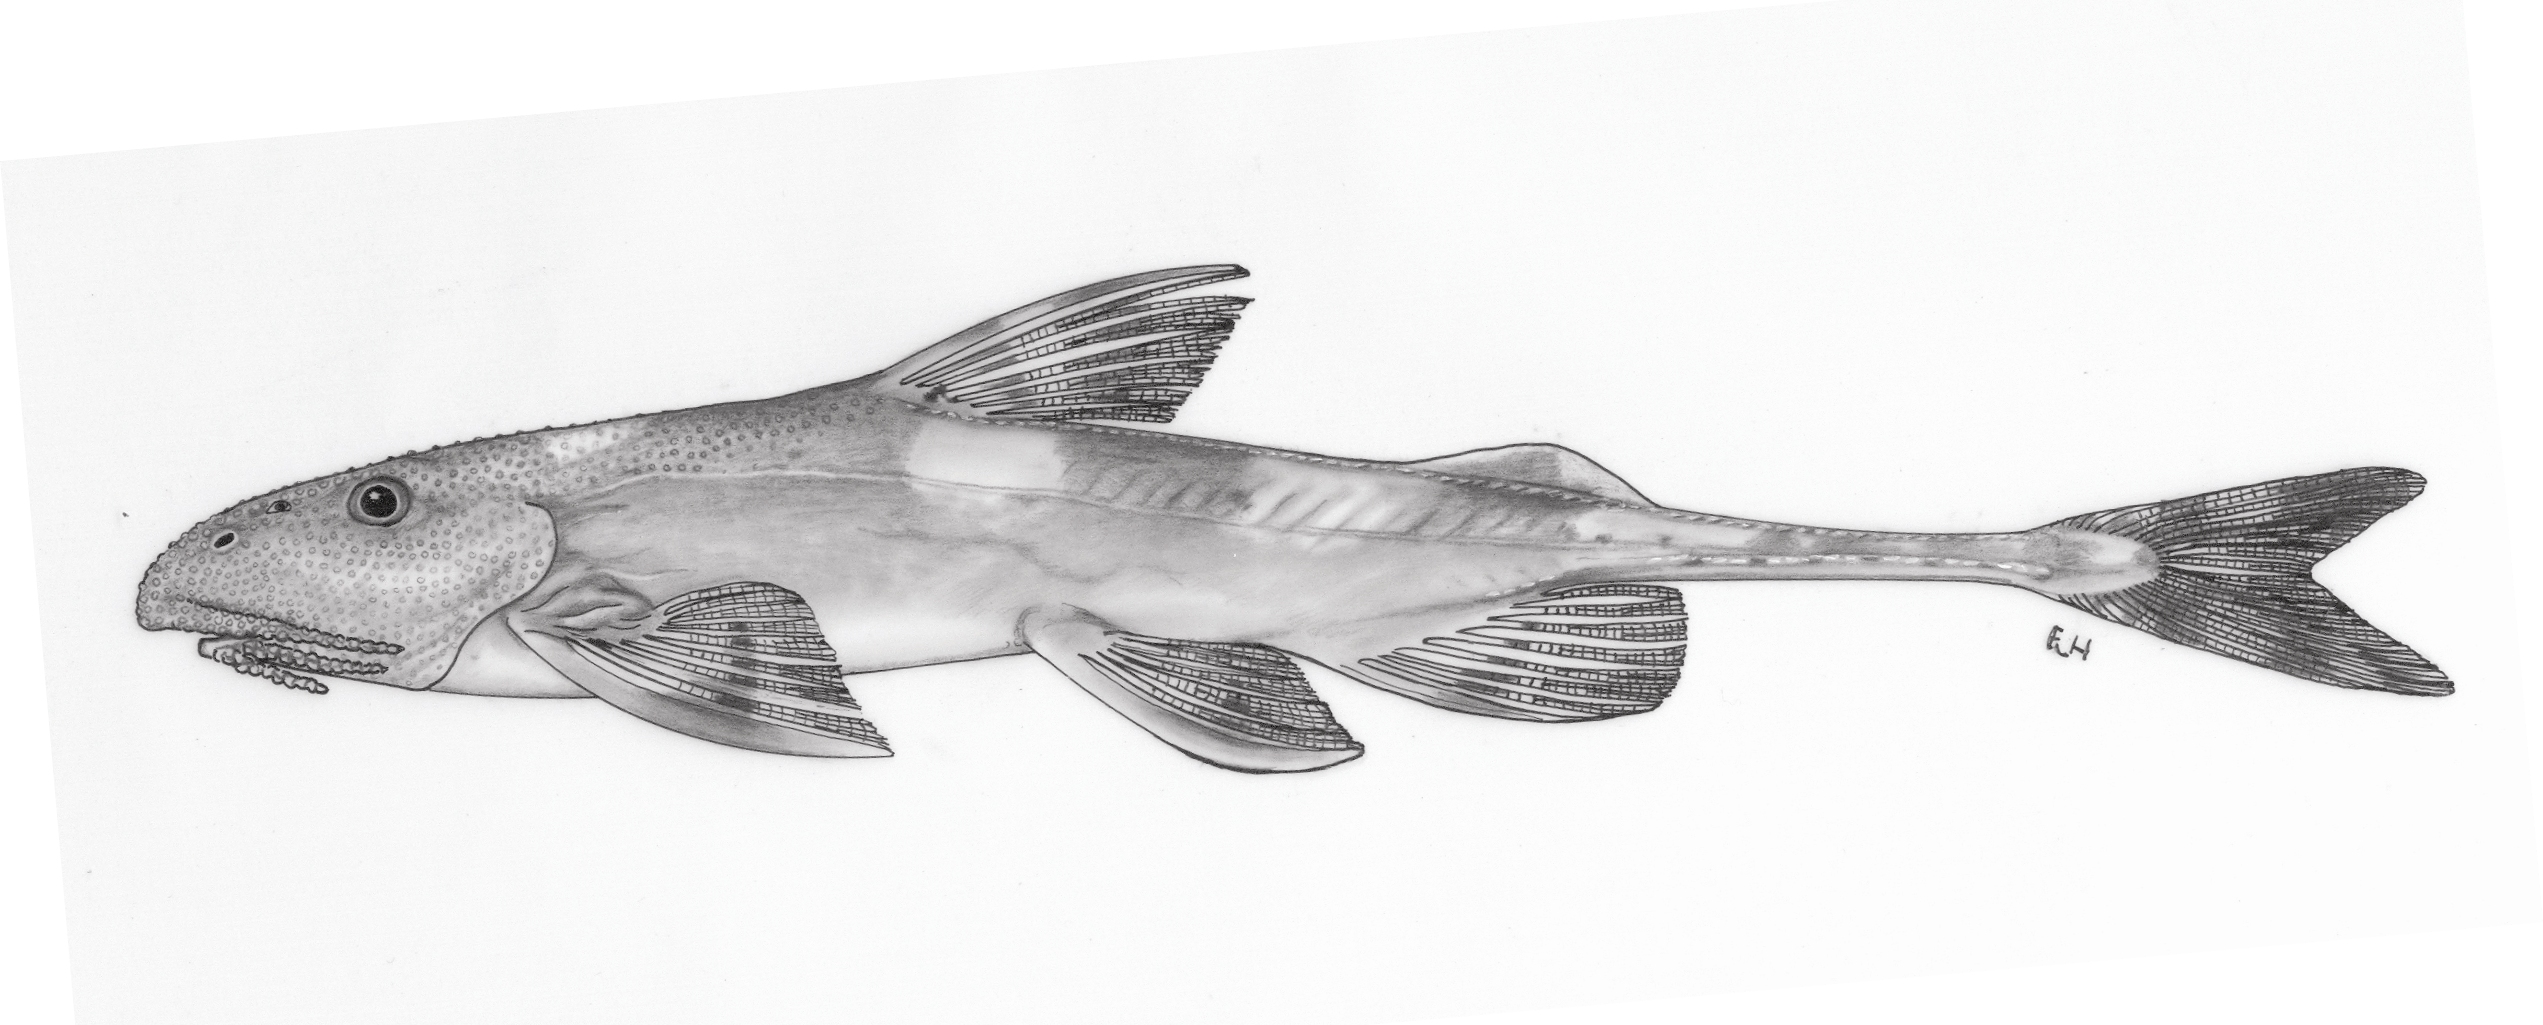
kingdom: Animalia
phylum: Chordata
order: Siluriformes
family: Amphiliidae
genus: Phractura
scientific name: Phractura brevicauda
